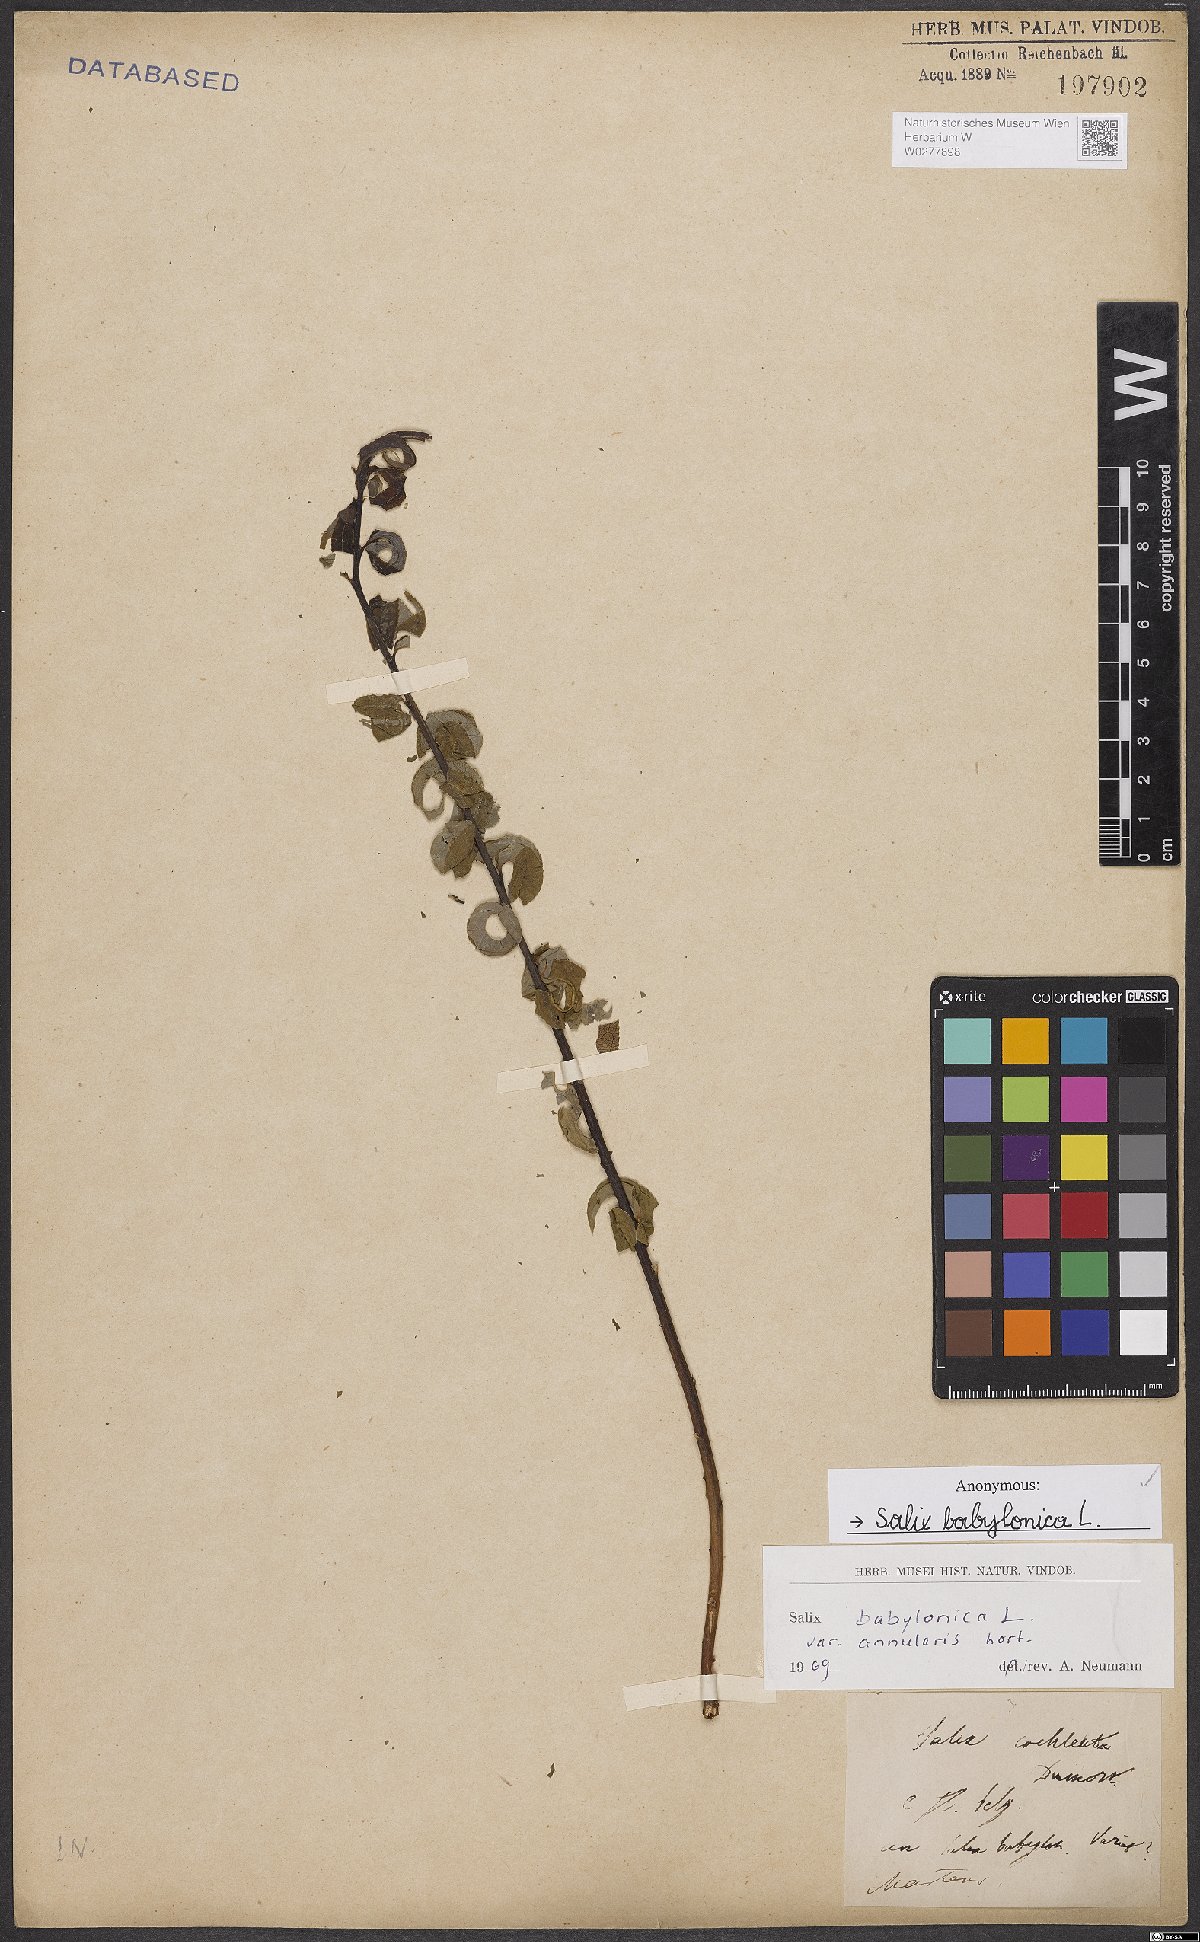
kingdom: Plantae
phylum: Tracheophyta
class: Magnoliopsida
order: Malpighiales
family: Salicaceae
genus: Salix
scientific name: Salix babylonica
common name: Weeping willow
